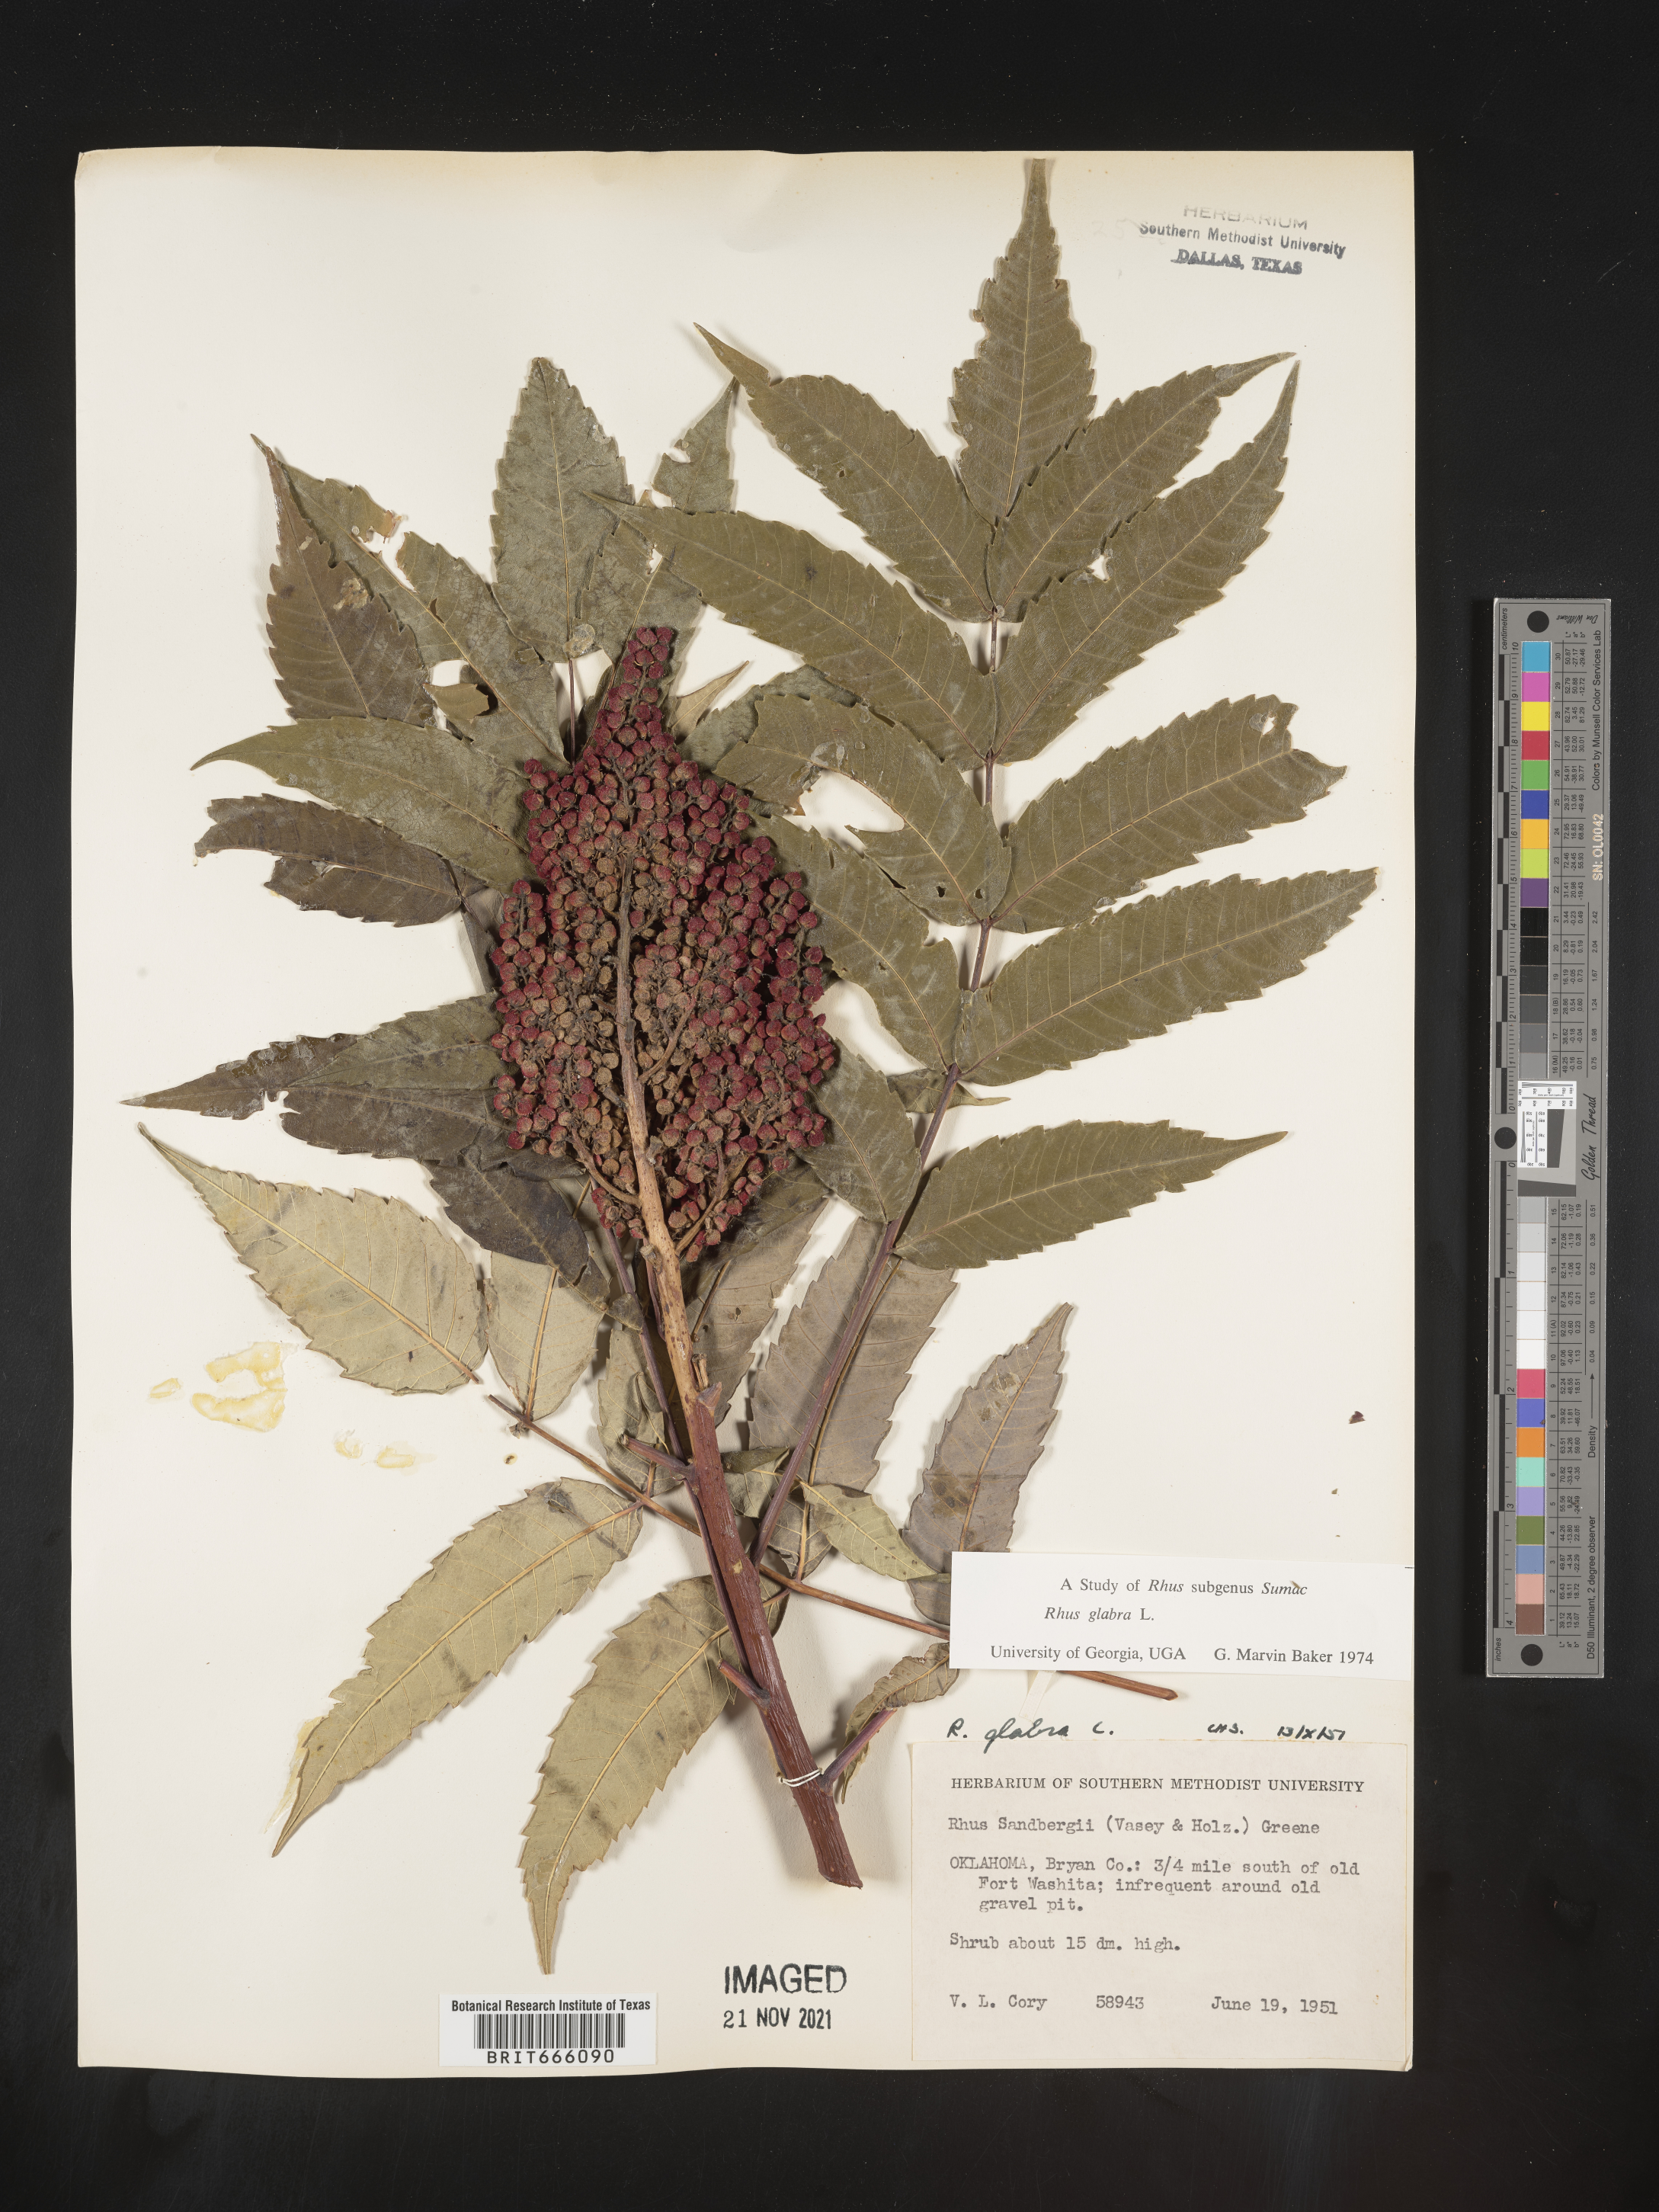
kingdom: Plantae
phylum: Tracheophyta
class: Magnoliopsida
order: Sapindales
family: Anacardiaceae
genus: Rhus
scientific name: Rhus glabra
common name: Scarlet sumac
